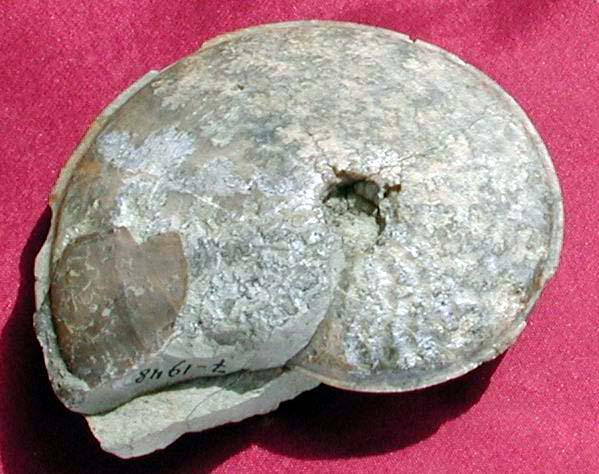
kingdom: Animalia
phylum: Mollusca
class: Cephalopoda
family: Graphoceratidae
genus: Hyperlioceras
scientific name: Hyperlioceras
